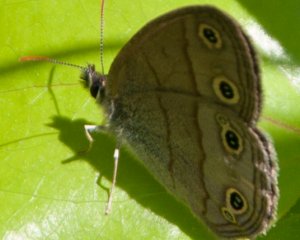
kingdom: Animalia
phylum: Arthropoda
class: Insecta
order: Lepidoptera
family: Nymphalidae
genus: Euptychia
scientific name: Euptychia cymela
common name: Little Wood Satyr
